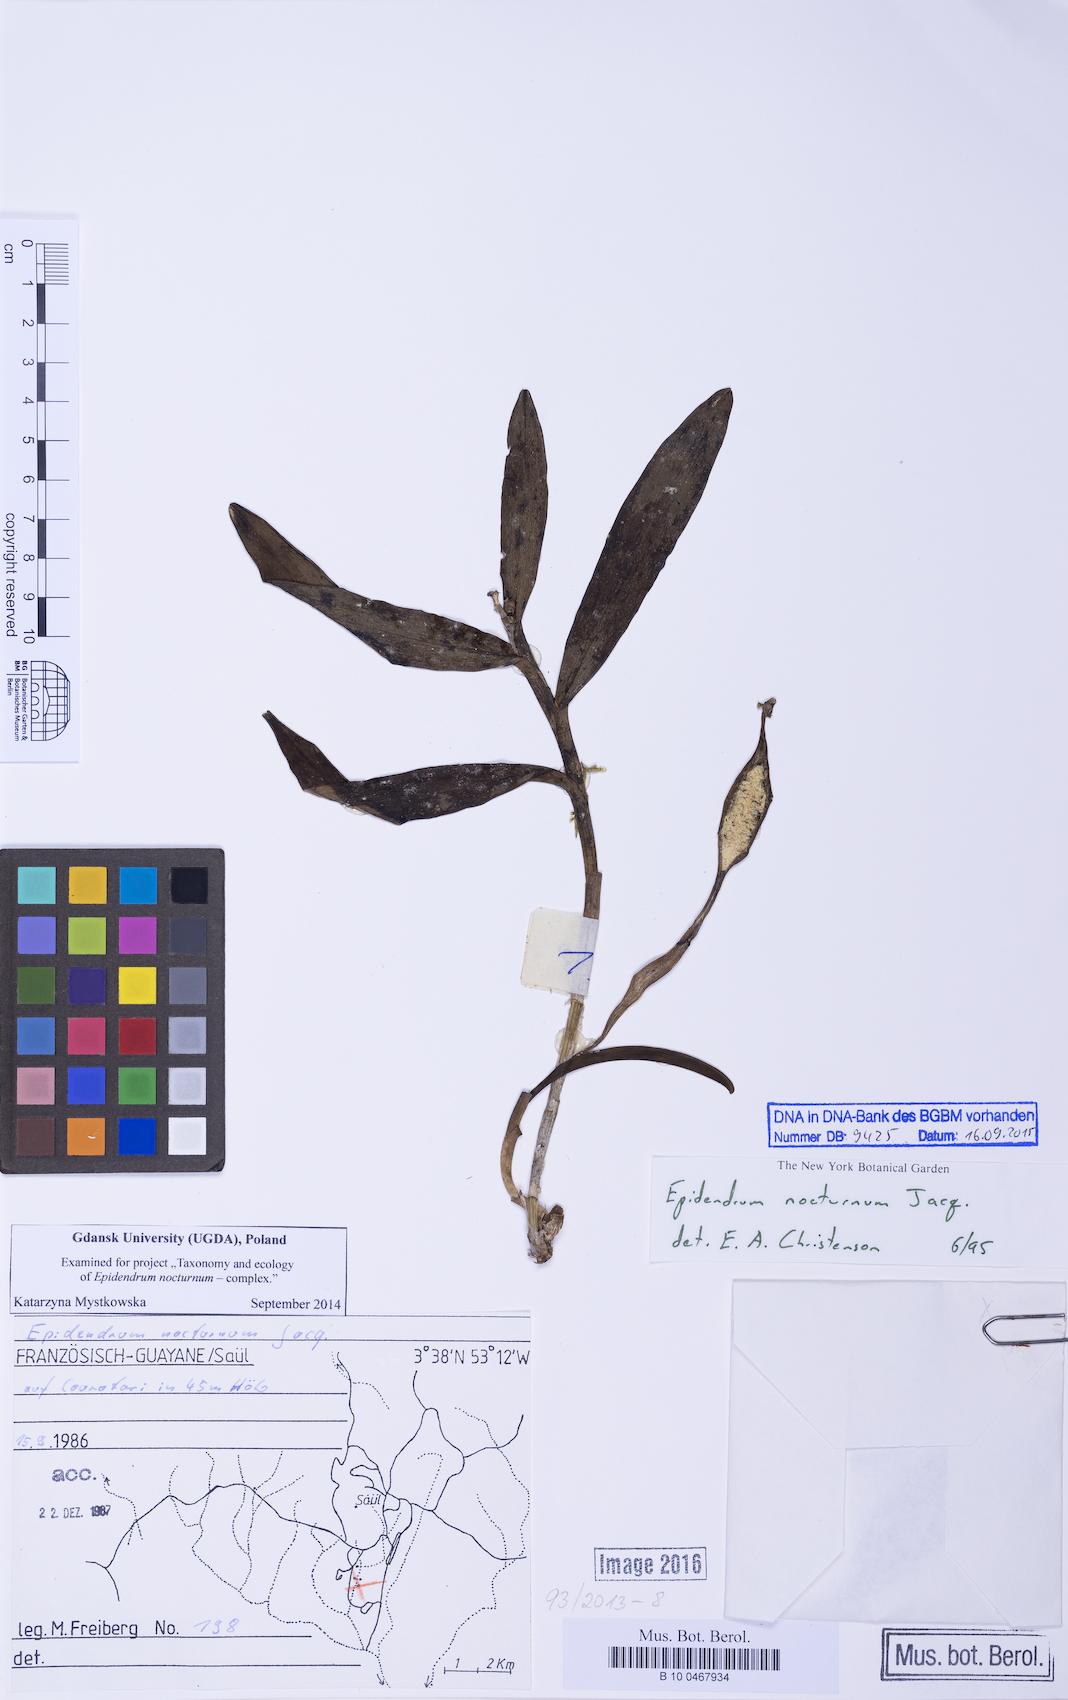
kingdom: Plantae
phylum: Tracheophyta
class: Liliopsida
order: Asparagales
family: Orchidaceae
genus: Epidendrum
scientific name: Epidendrum nocturnum
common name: Night scented orchid
